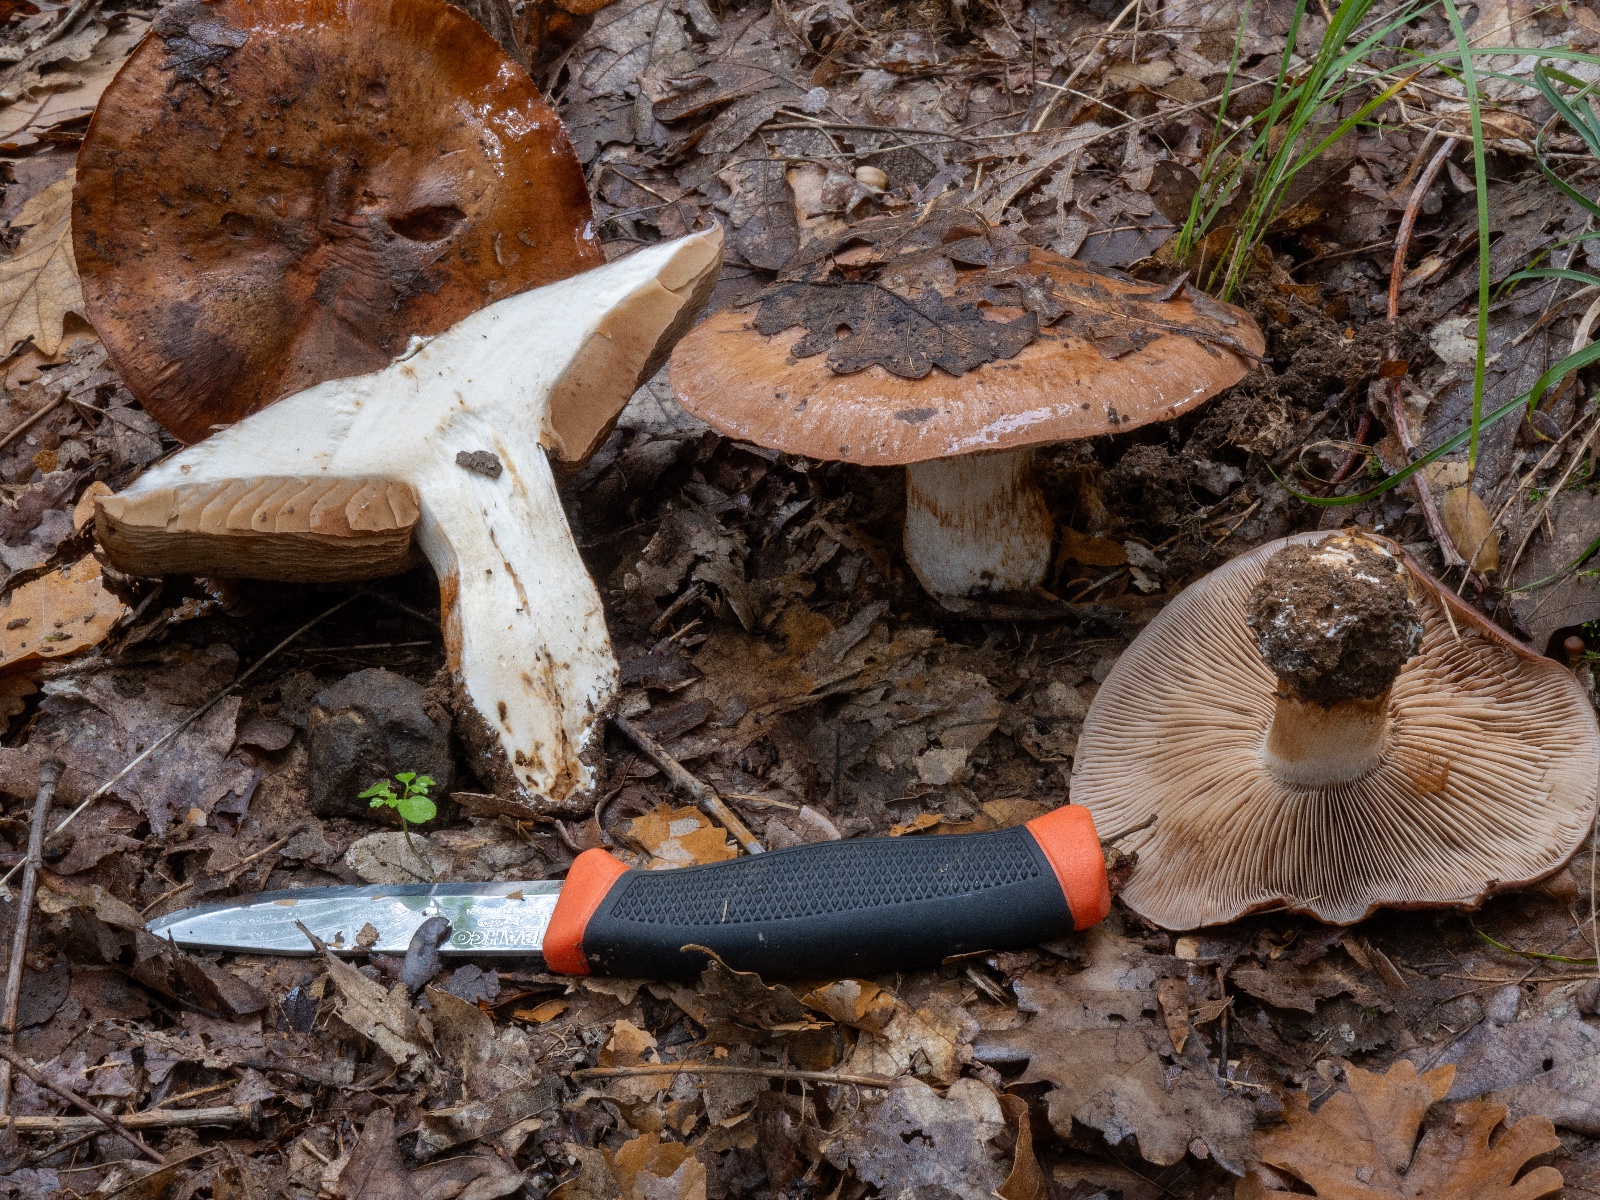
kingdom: Fungi
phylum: Basidiomycota
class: Agaricomycetes
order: Agaricales
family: Cortinariaceae
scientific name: Cortinariaceae
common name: slørhatfamilien
